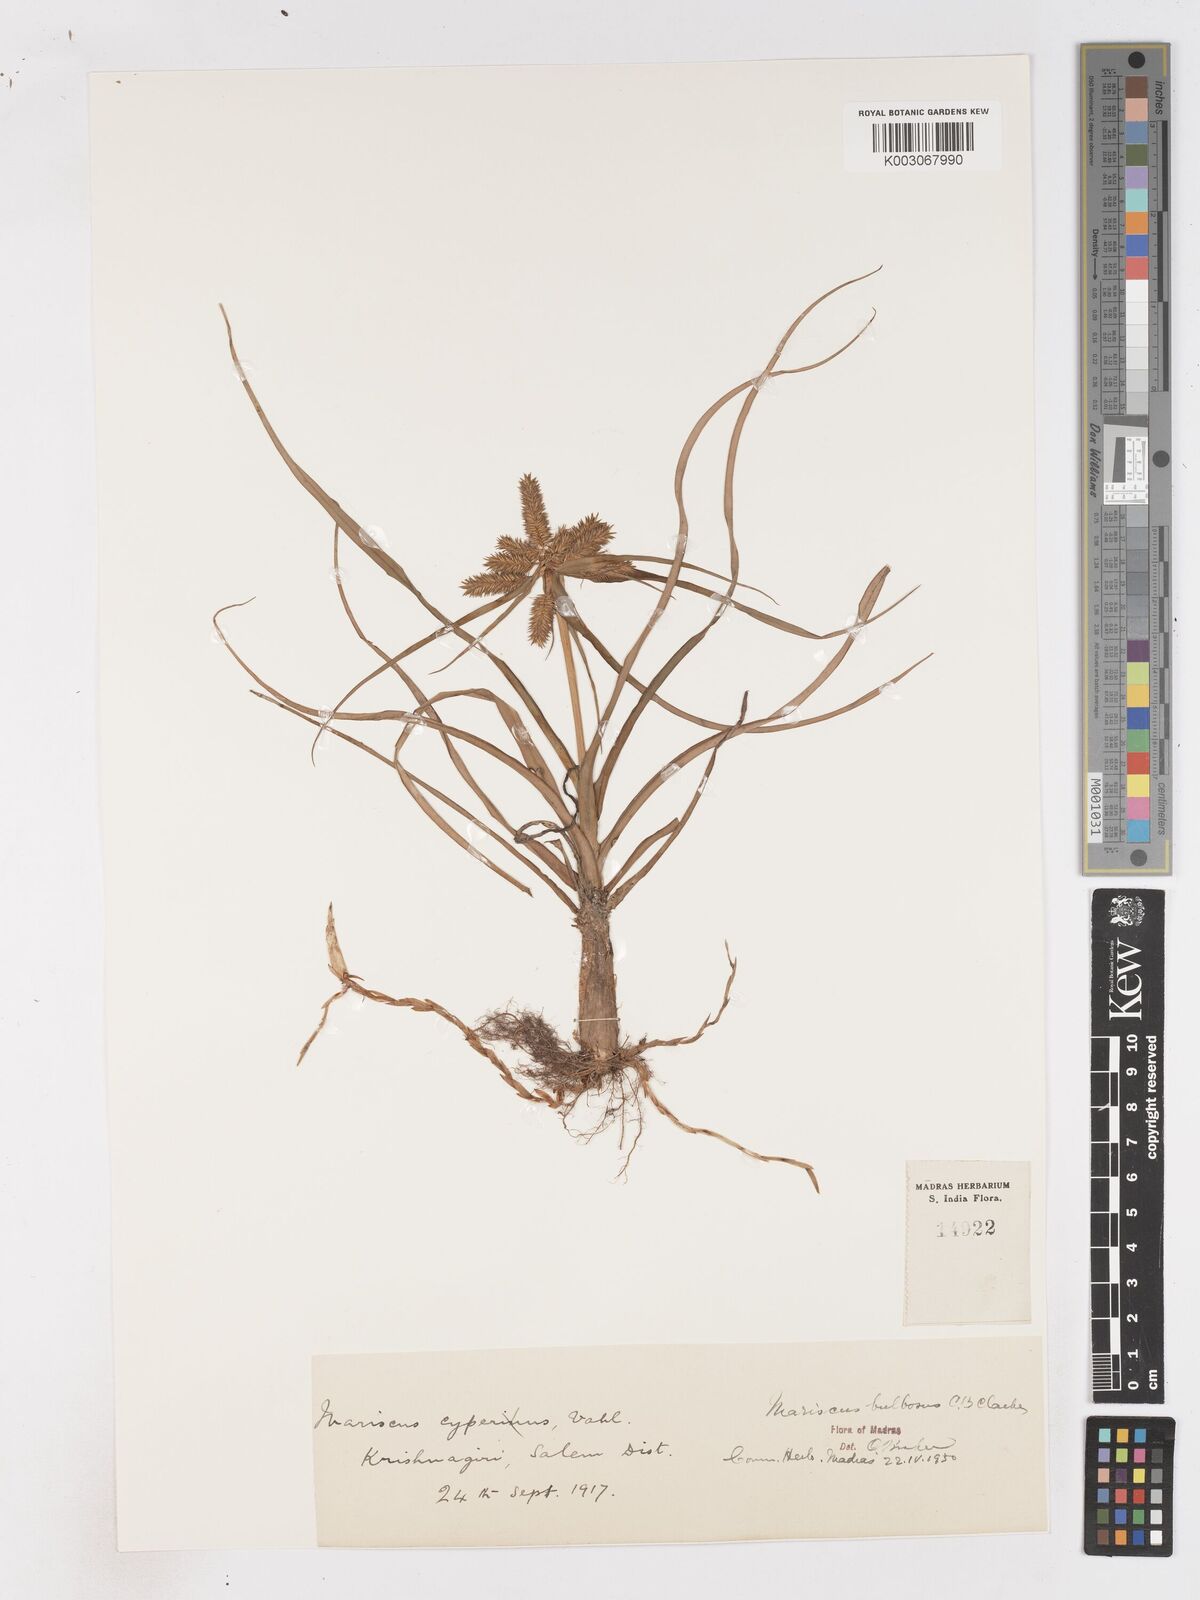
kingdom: Plantae
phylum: Tracheophyta
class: Liliopsida
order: Poales
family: Cyperaceae
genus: Cyperus
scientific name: Cyperus clarkei
